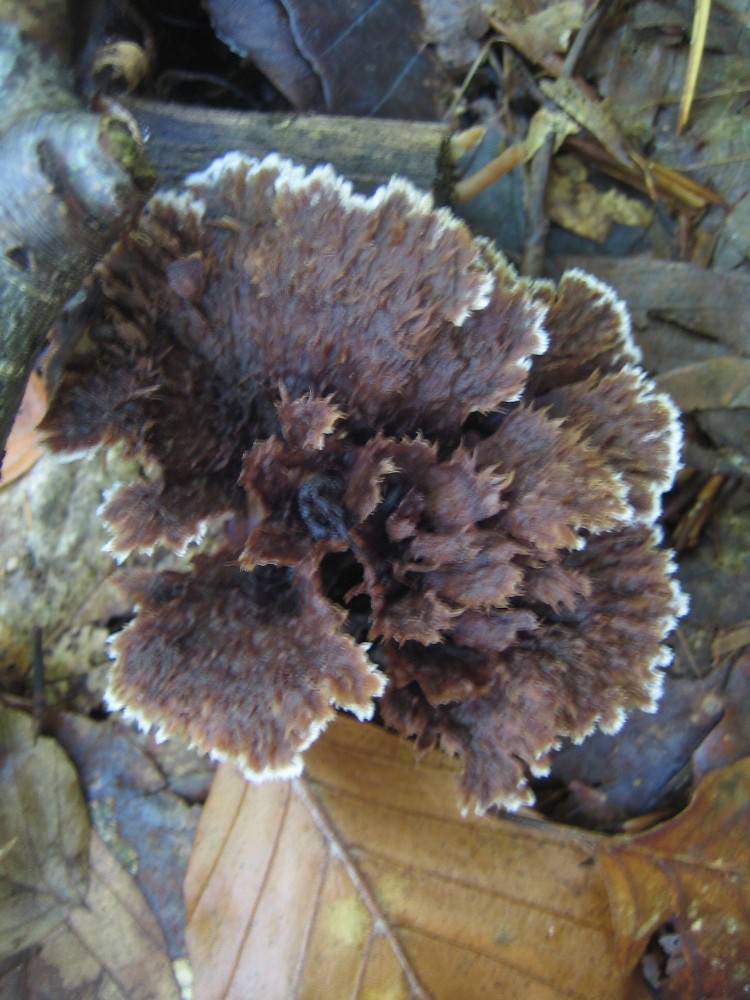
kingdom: Fungi
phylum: Basidiomycota
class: Agaricomycetes
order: Thelephorales
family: Thelephoraceae
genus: Thelephora
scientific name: Thelephora terrestris
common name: fliget frynsesvamp
